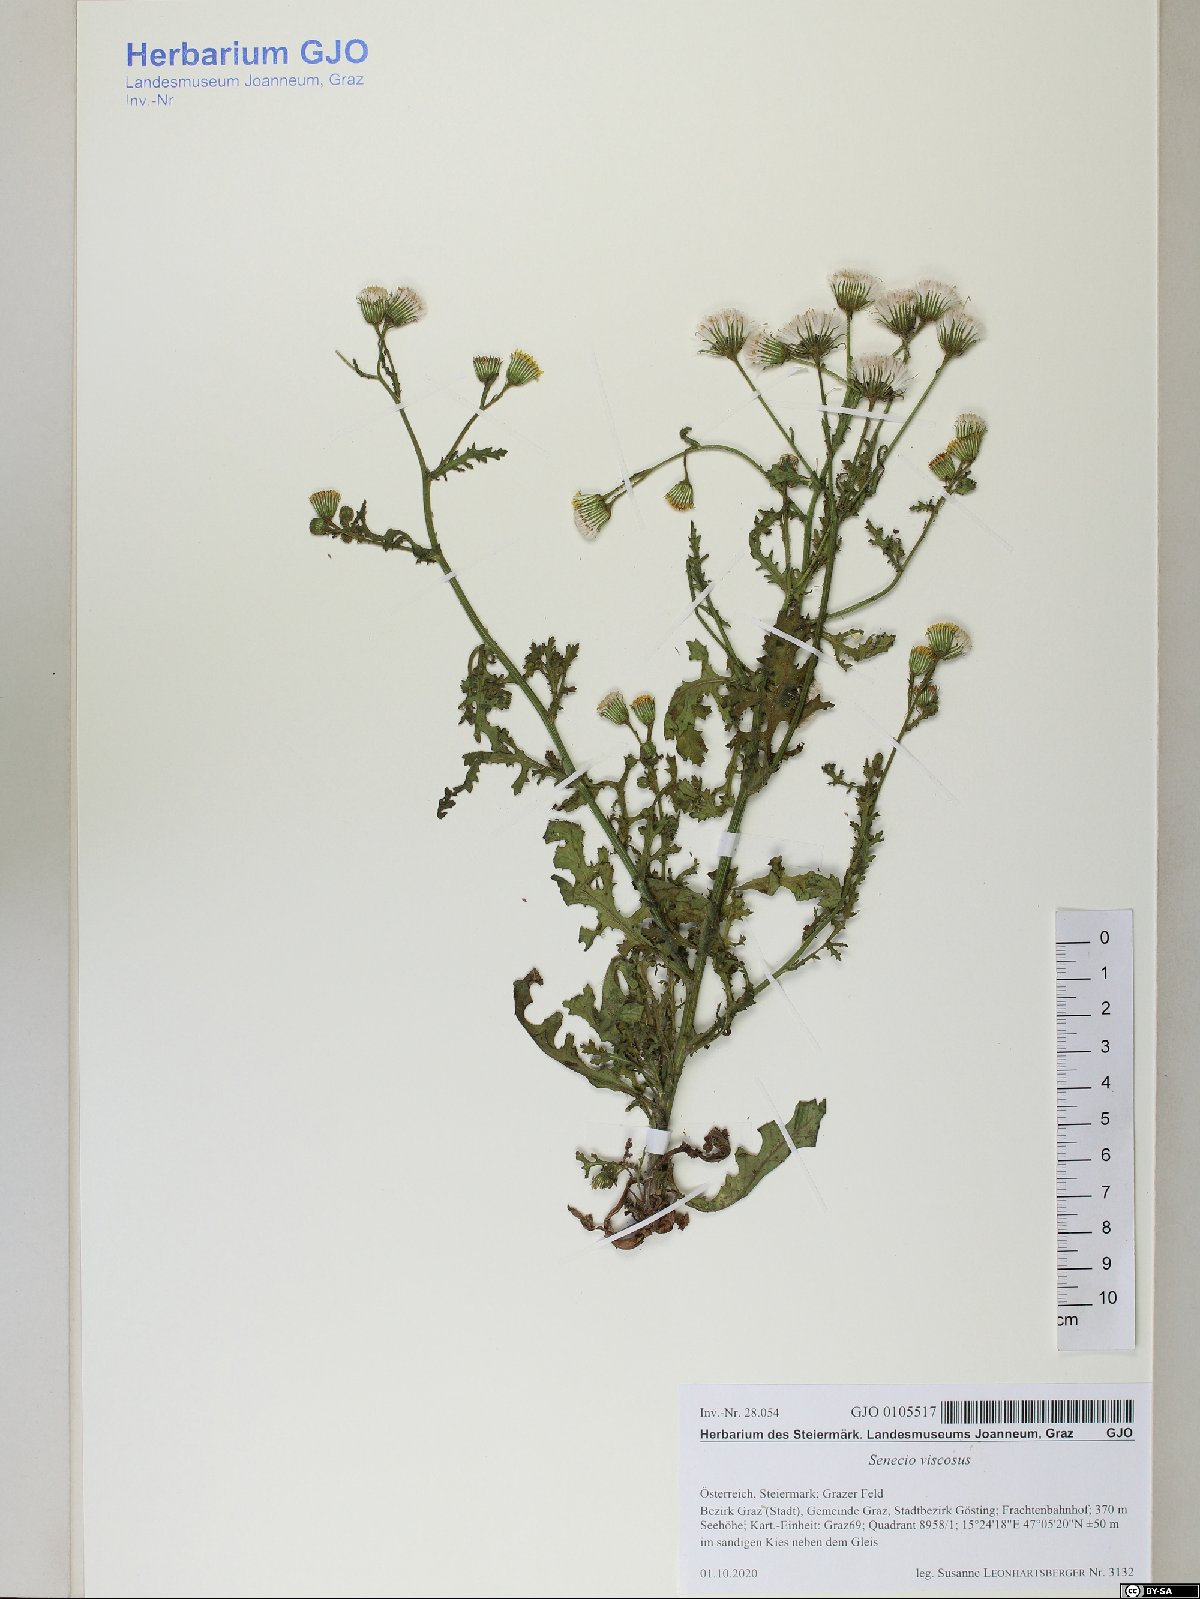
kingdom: Plantae
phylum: Tracheophyta
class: Magnoliopsida
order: Asterales
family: Asteraceae
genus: Senecio
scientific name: Senecio viscosus
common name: Sticky groundsel
